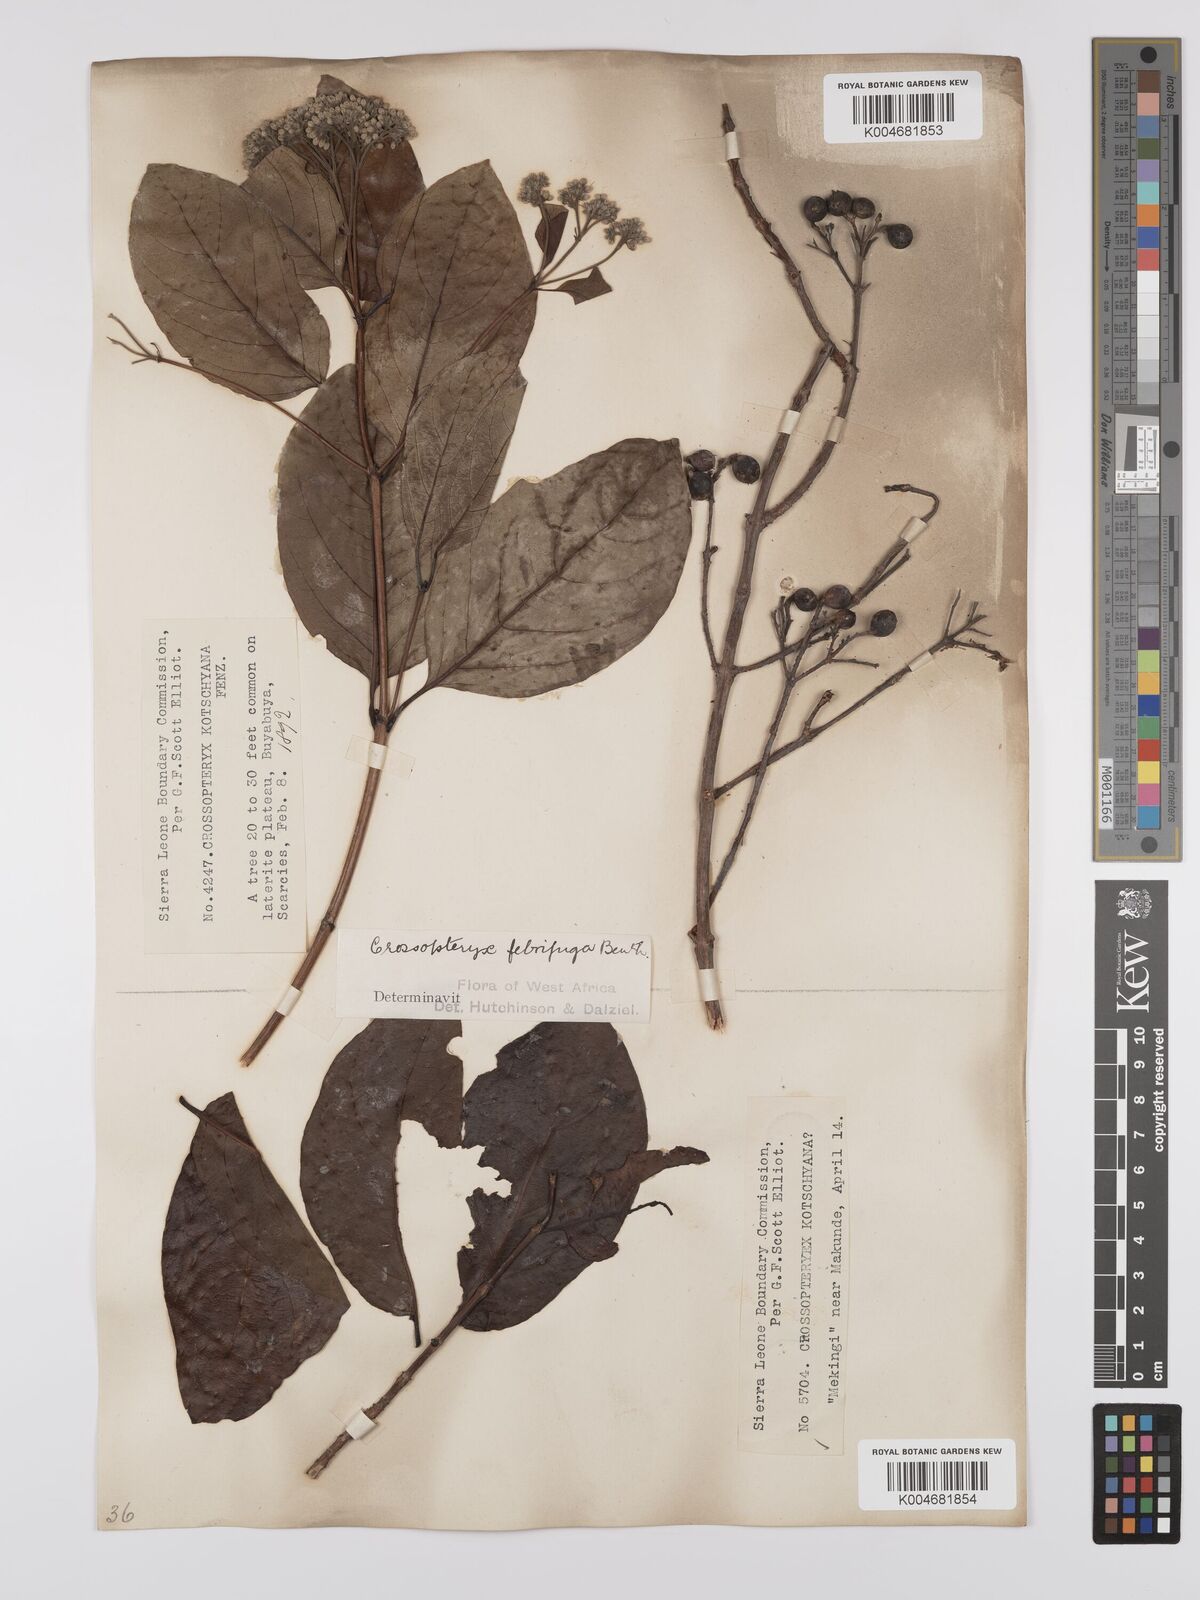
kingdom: Plantae
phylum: Tracheophyta
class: Magnoliopsida
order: Gentianales
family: Rubiaceae
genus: Crossopteryx
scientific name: Crossopteryx febrifuga
